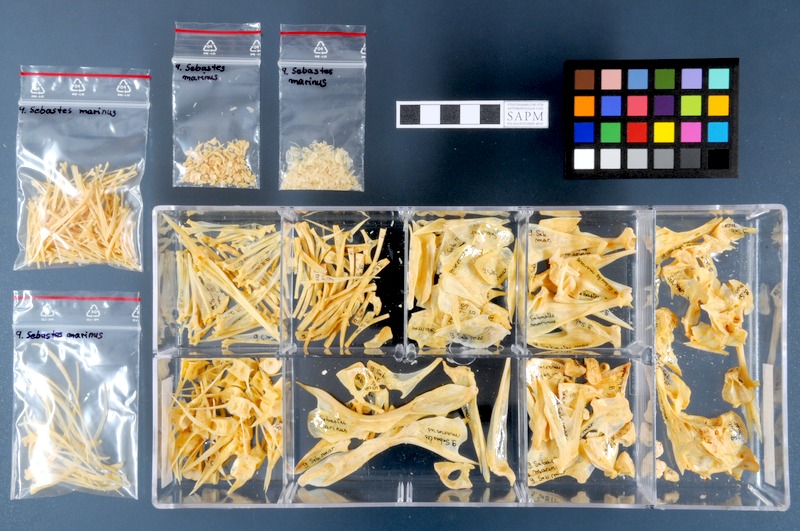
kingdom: Animalia
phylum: Chordata
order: Scorpaeniformes
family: Sebastidae
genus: Sebastes
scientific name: Sebastes norvegicus
